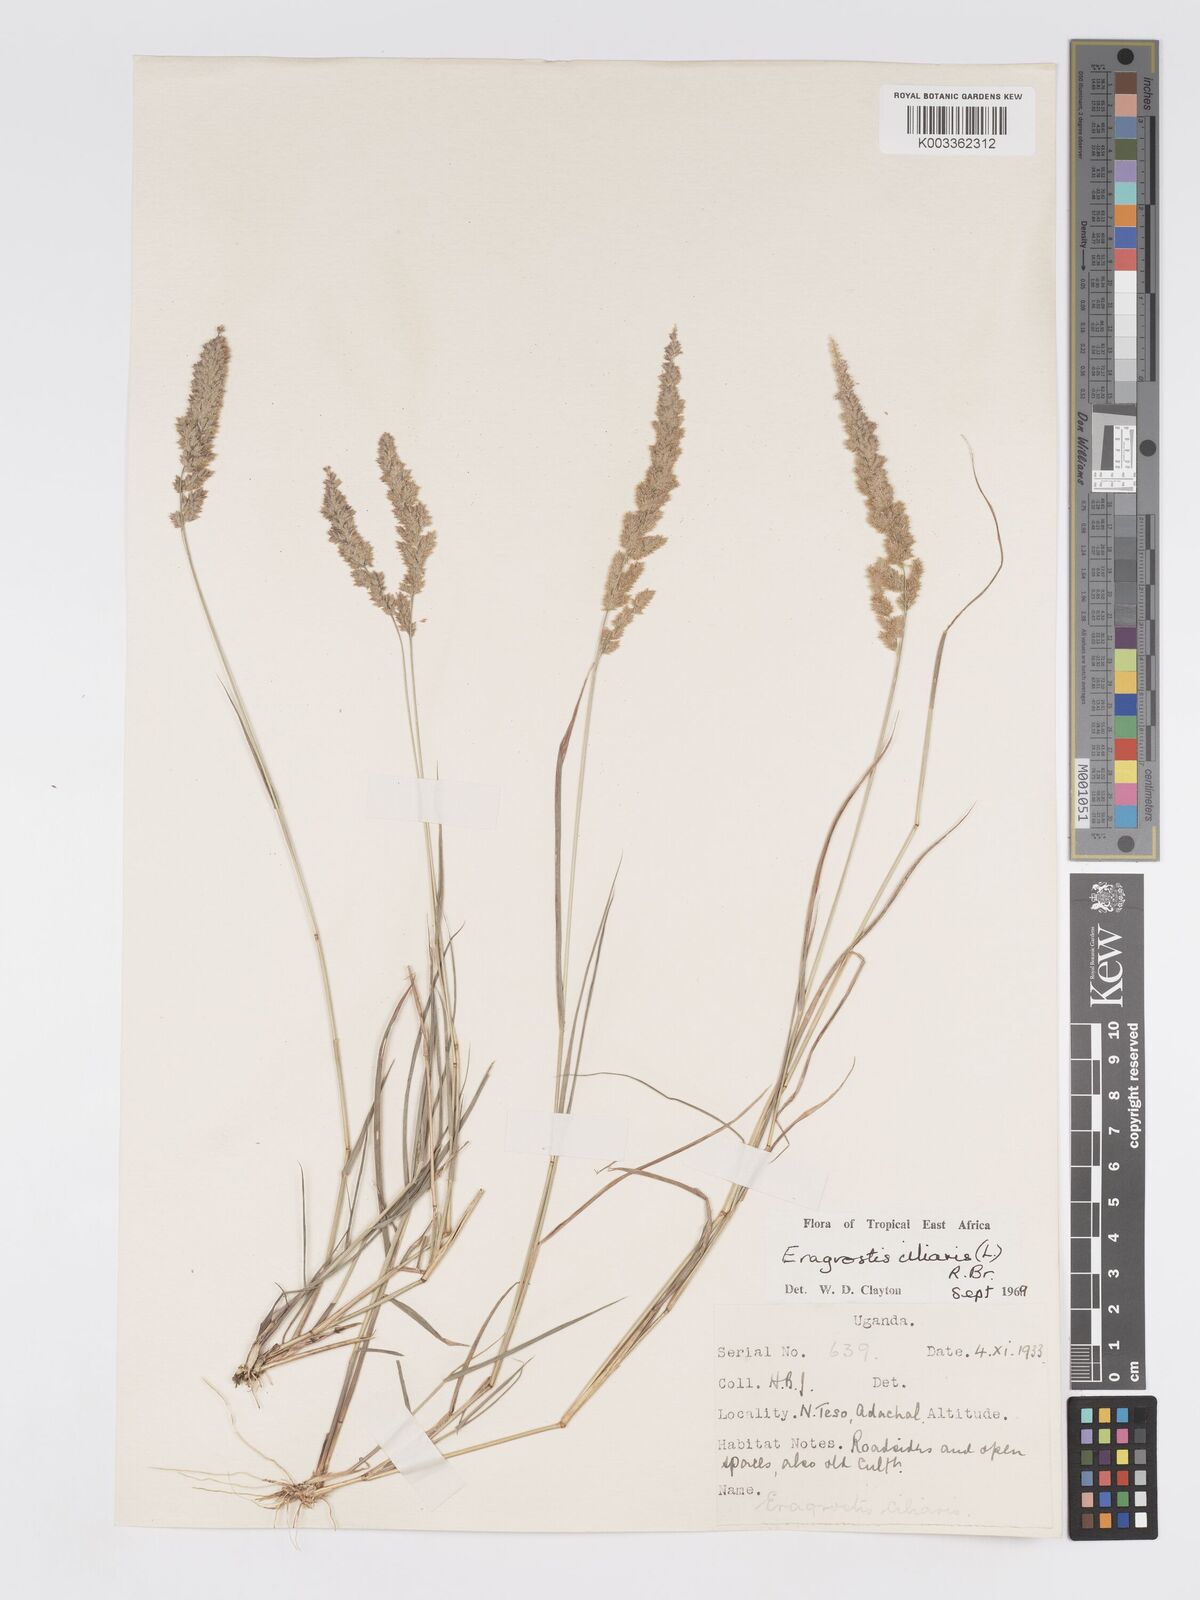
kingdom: Plantae
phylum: Tracheophyta
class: Liliopsida
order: Poales
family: Poaceae
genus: Eragrostis
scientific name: Eragrostis ciliaris
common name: Gophertail lovegrass
